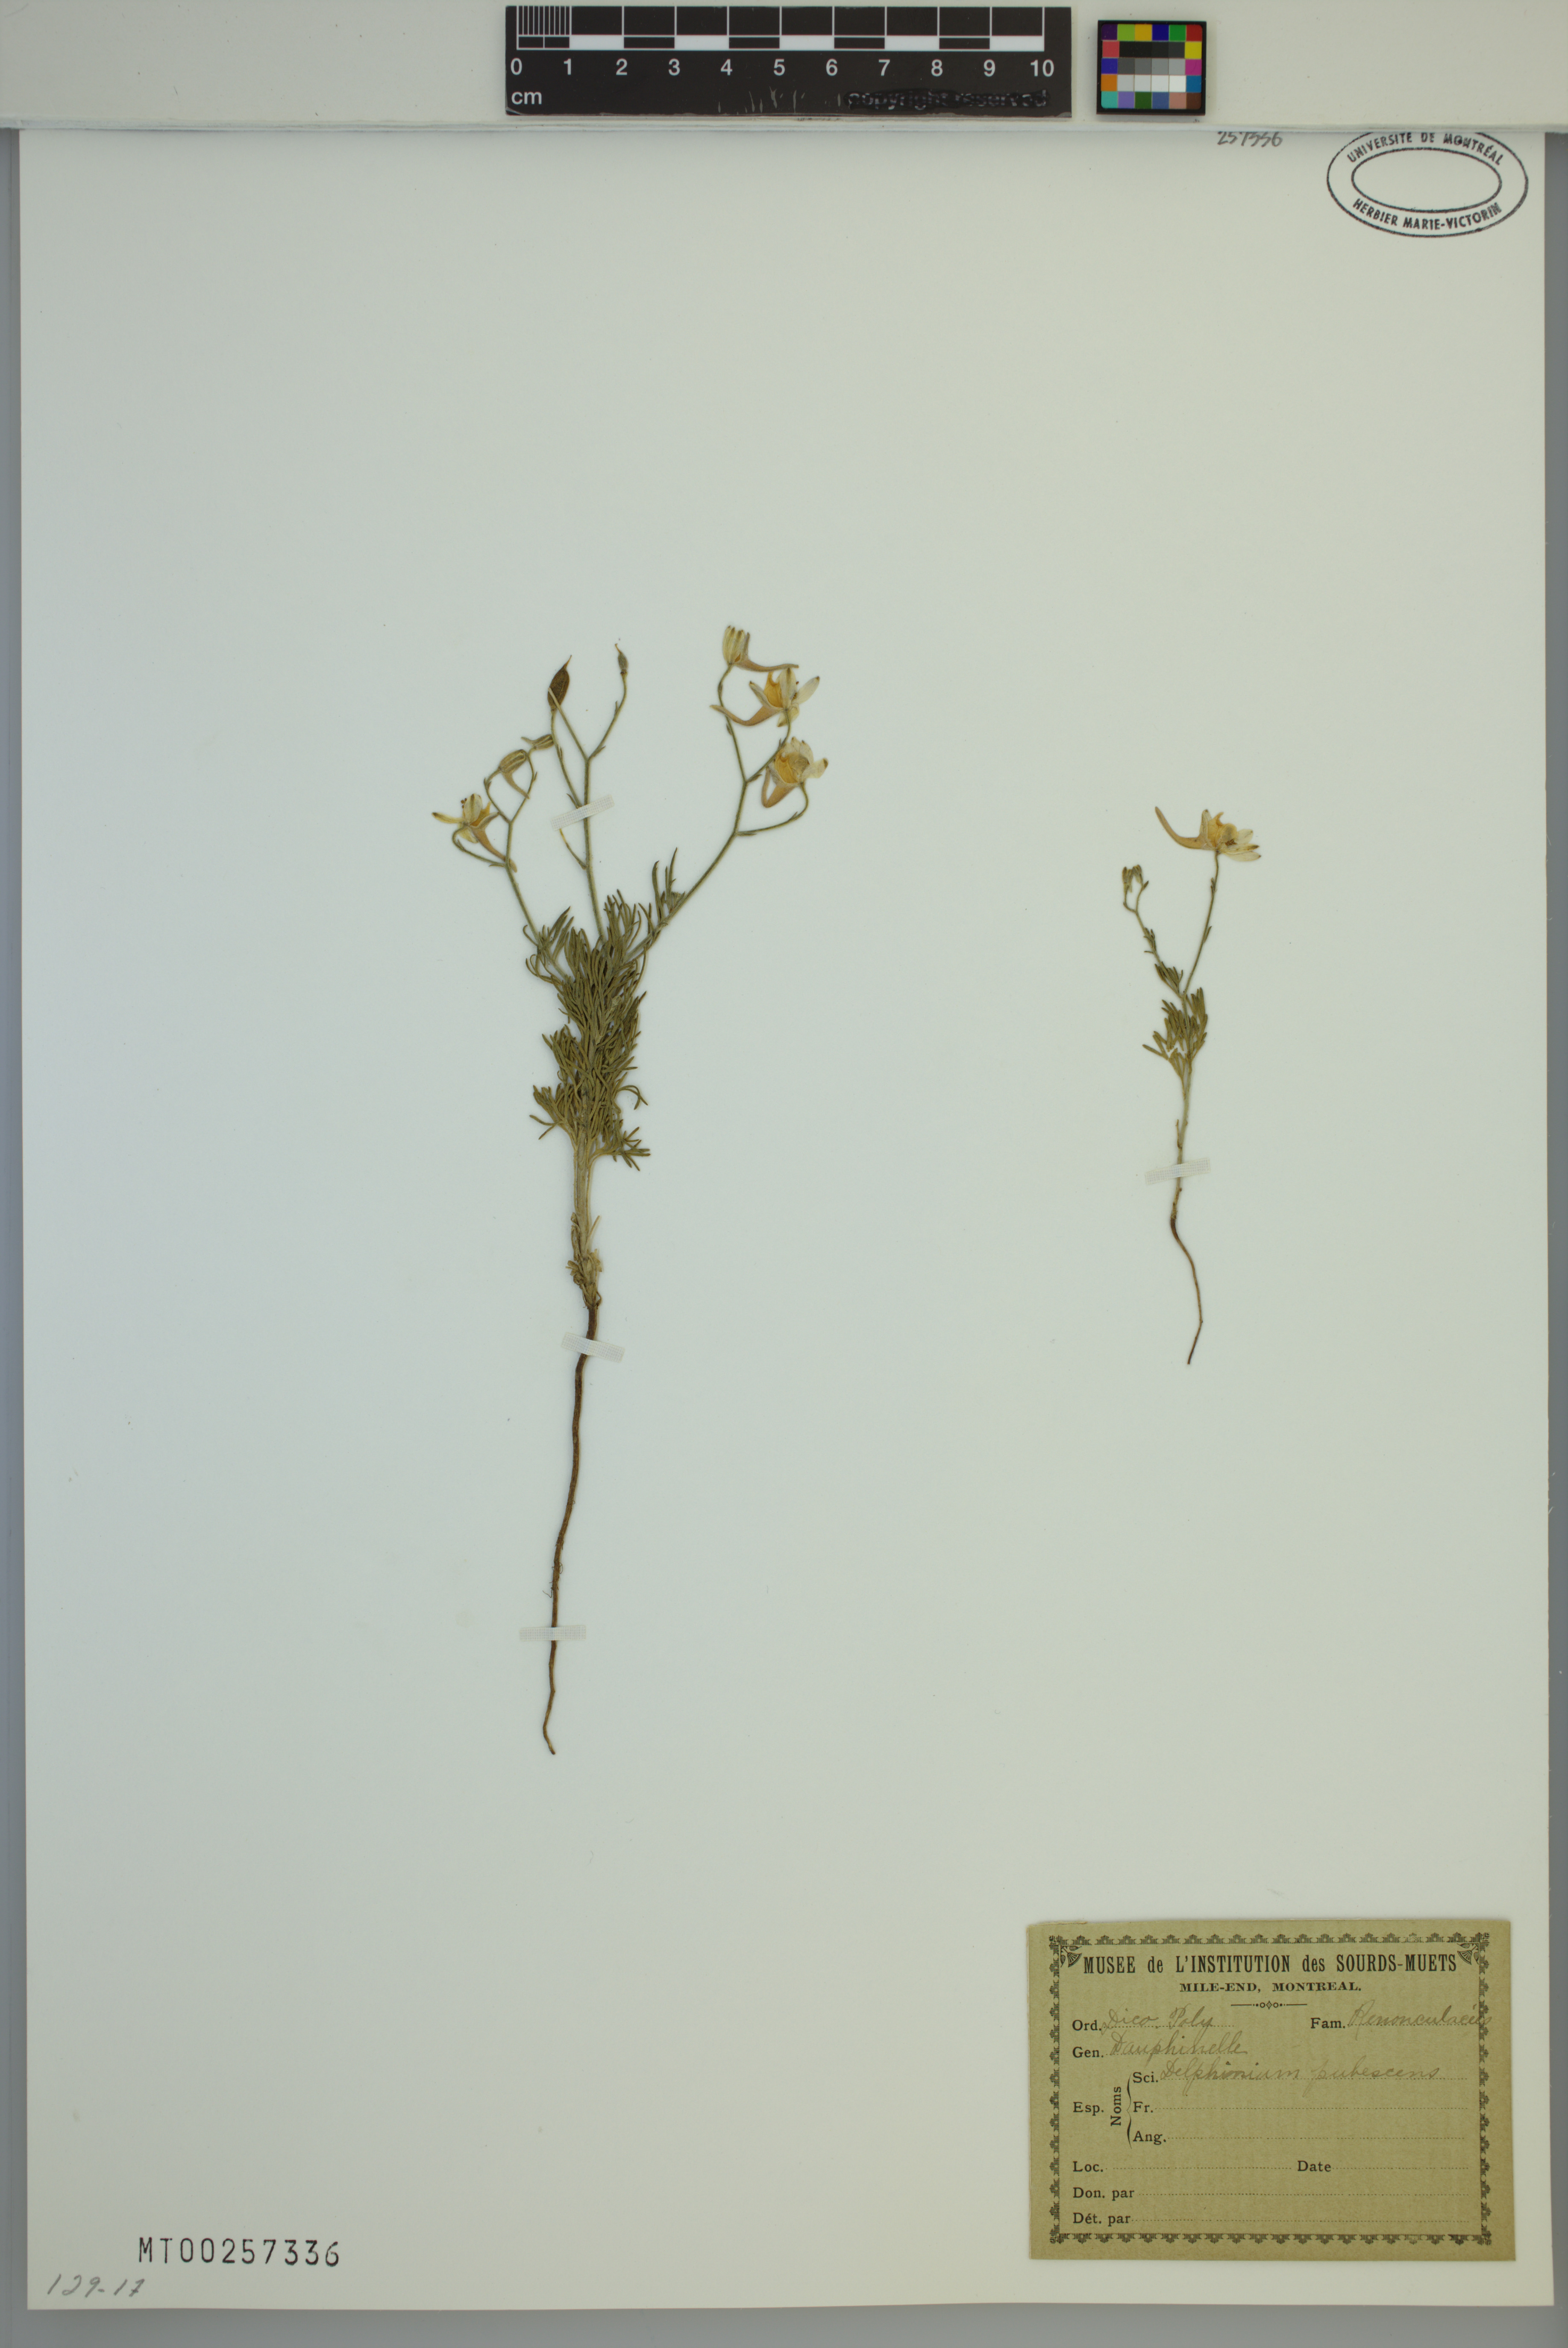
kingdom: Plantae
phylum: Tracheophyta
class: Magnoliopsida
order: Ranunculales
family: Ranunculaceae
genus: Delphinium
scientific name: Delphinium pubescens
